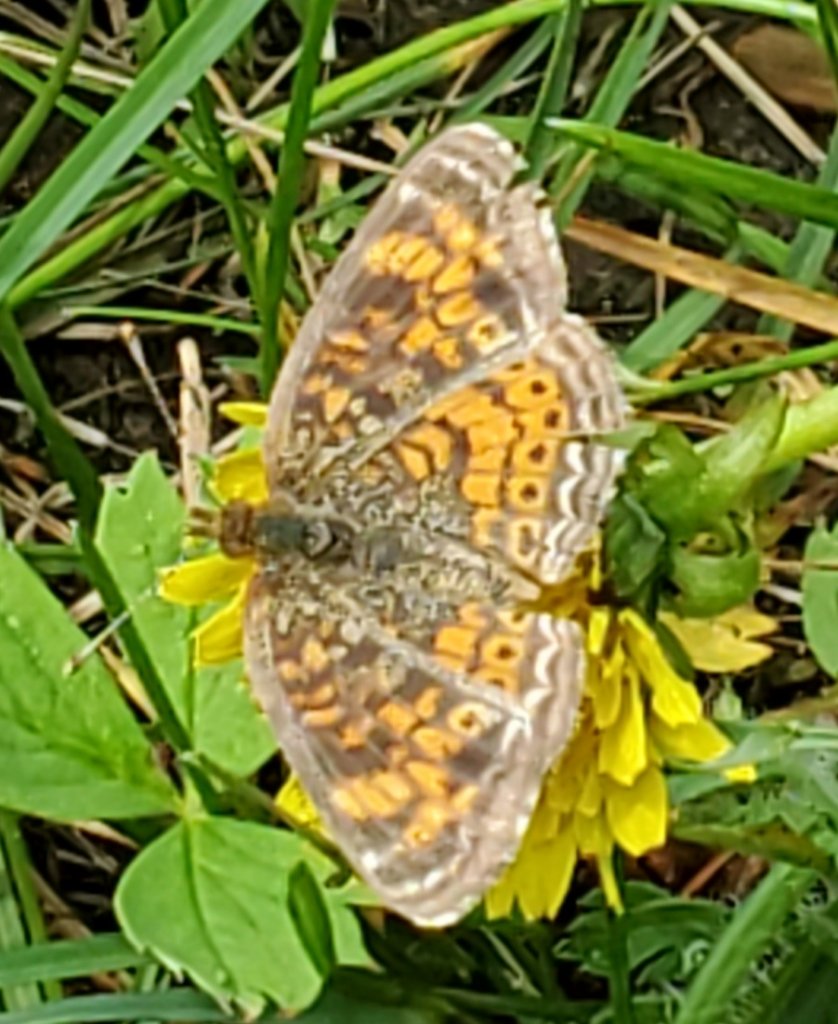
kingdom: Animalia
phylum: Arthropoda
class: Insecta
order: Lepidoptera
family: Nymphalidae
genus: Phyciodes
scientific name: Phyciodes tharos
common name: Northern Crescent
